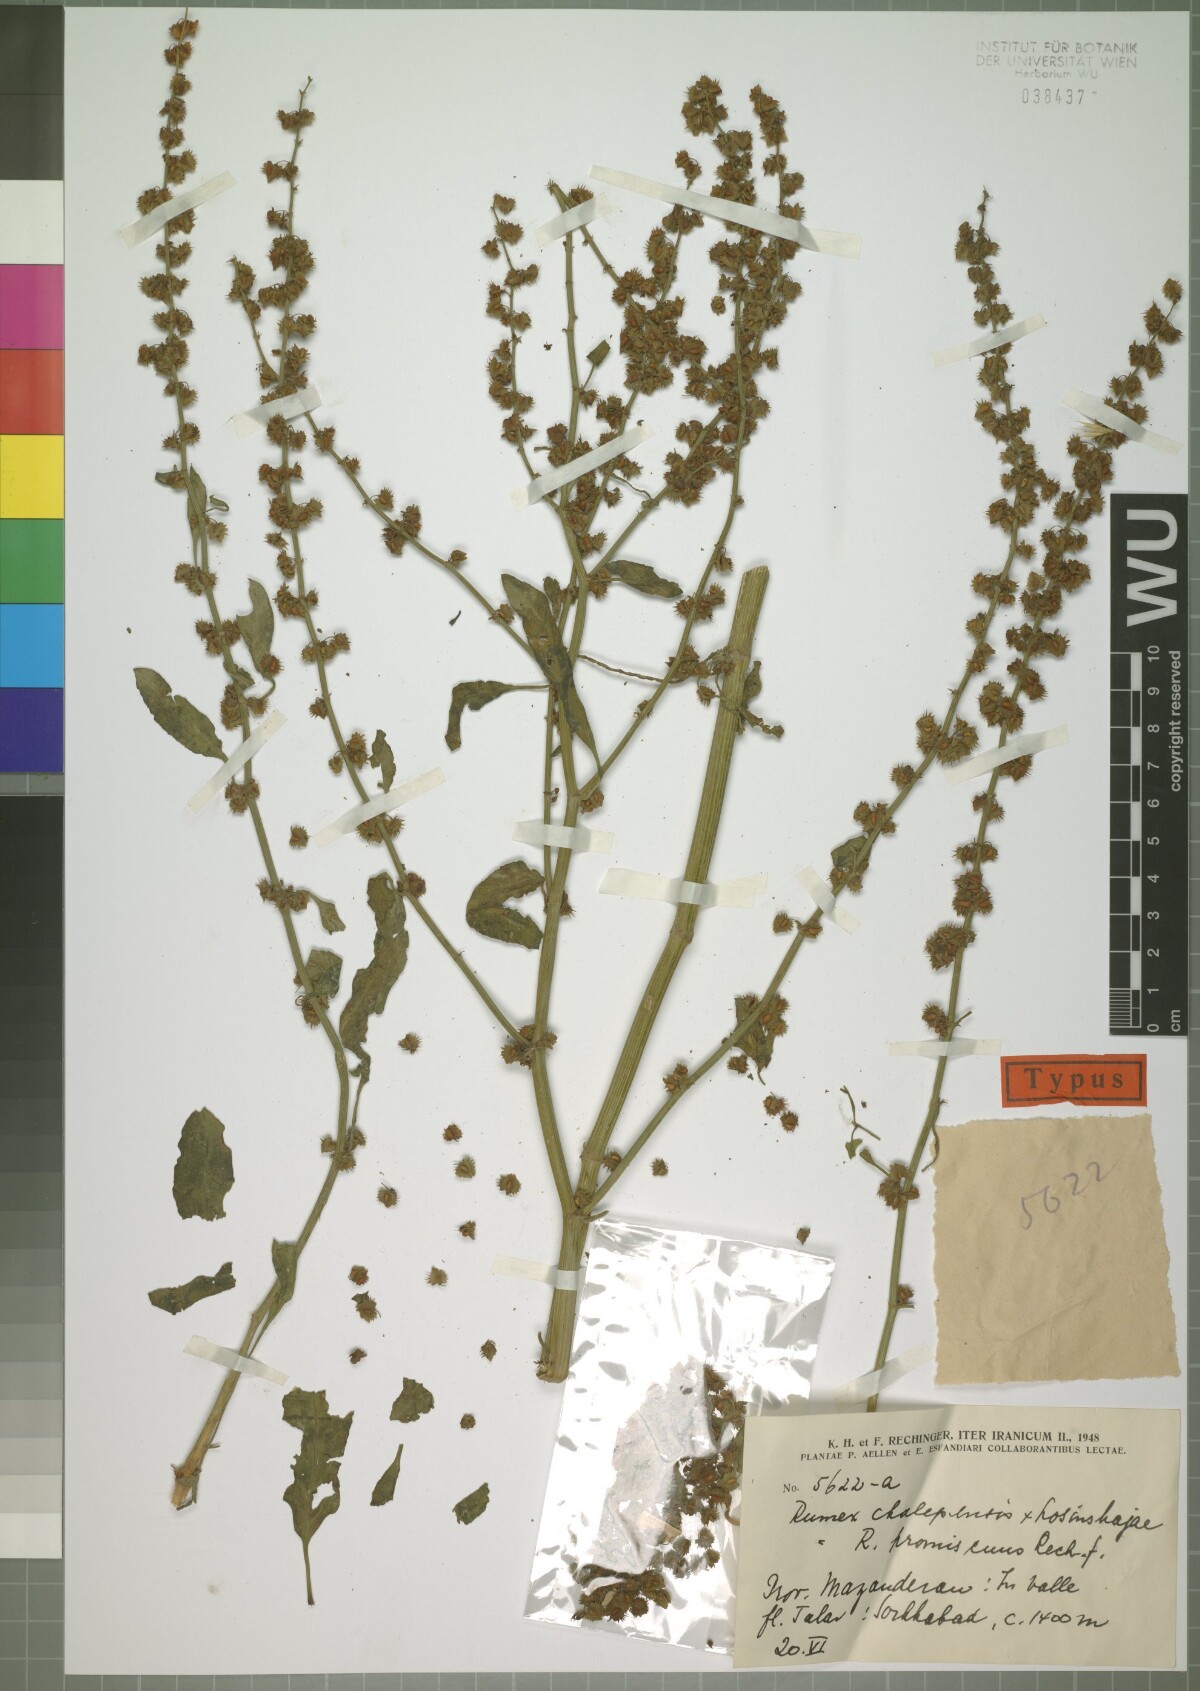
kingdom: Plantae
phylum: Tracheophyta
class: Magnoliopsida
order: Caryophyllales
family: Polygonaceae
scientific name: Polygonaceae
